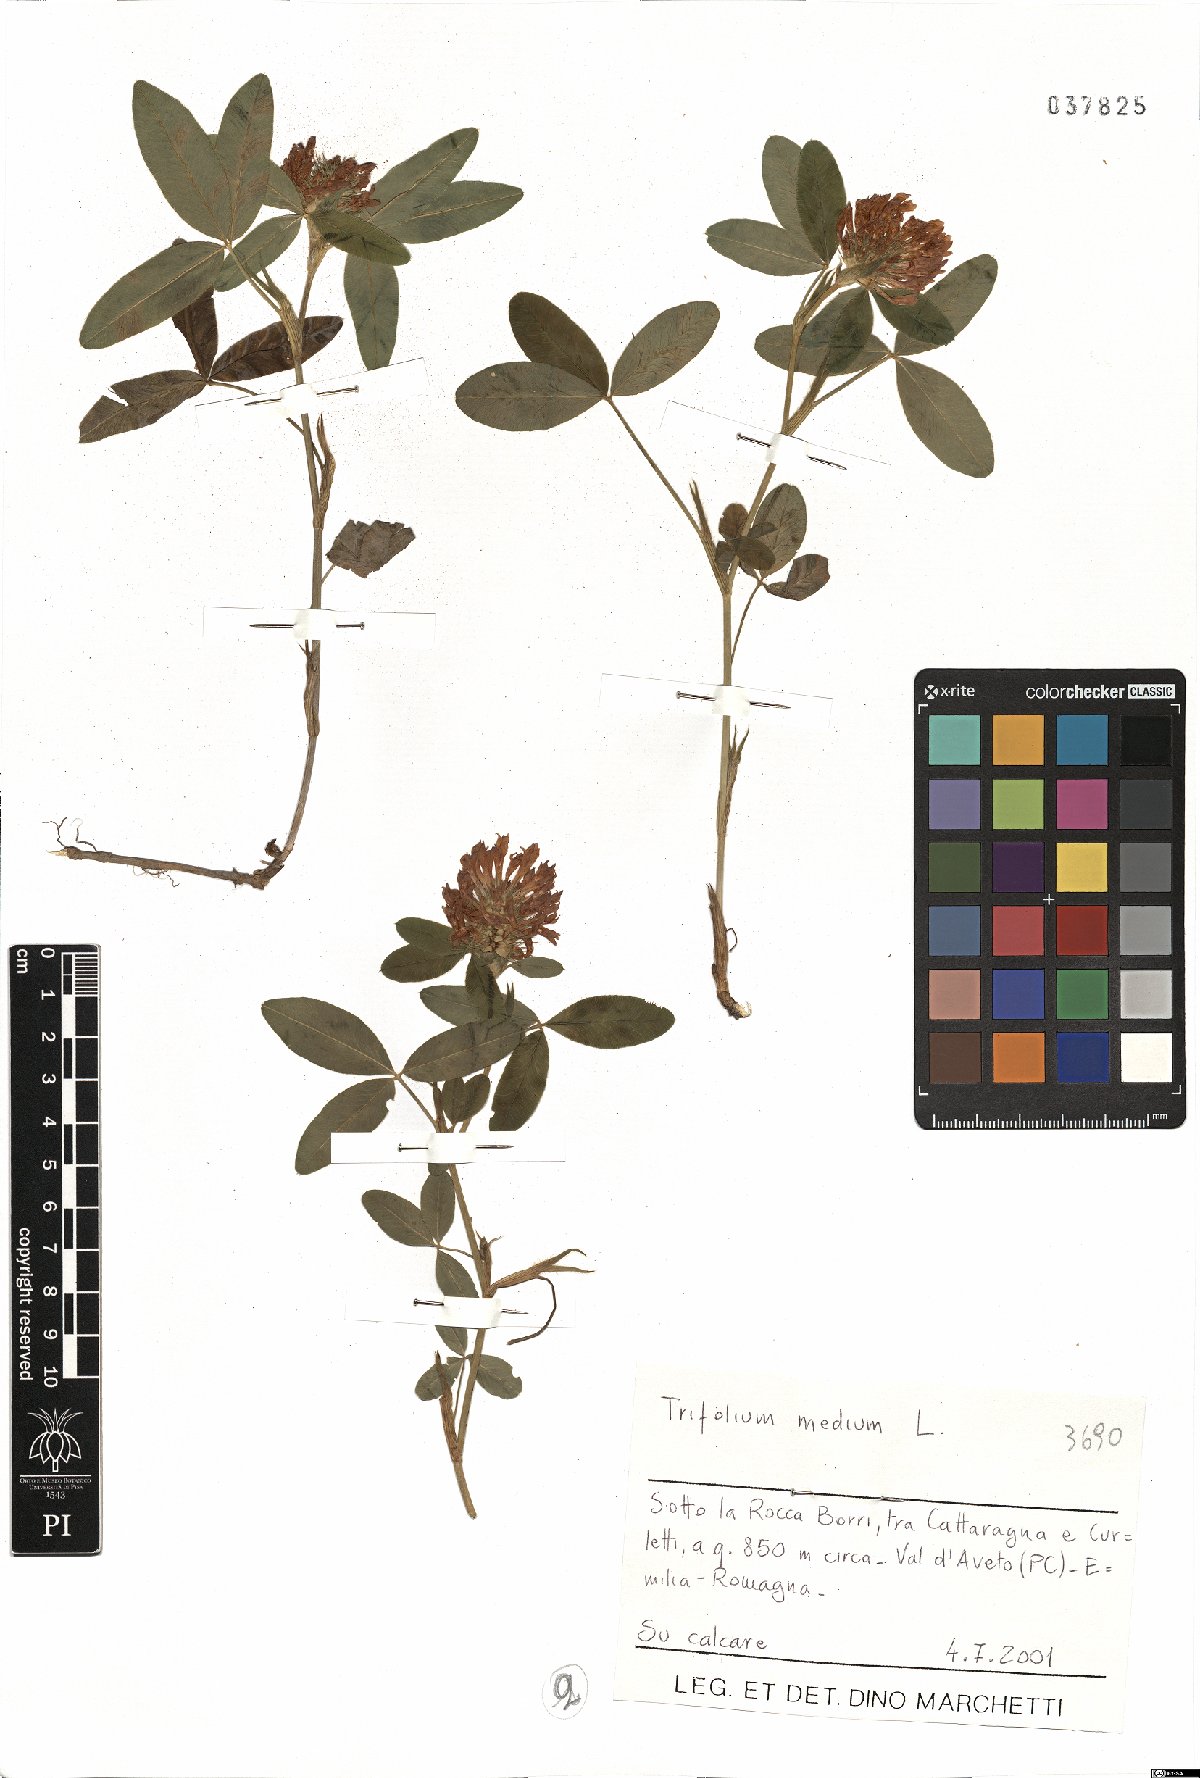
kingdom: Plantae
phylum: Tracheophyta
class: Magnoliopsida
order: Fabales
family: Fabaceae
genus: Trifolium
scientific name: Trifolium medium
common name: Zigzag clover
